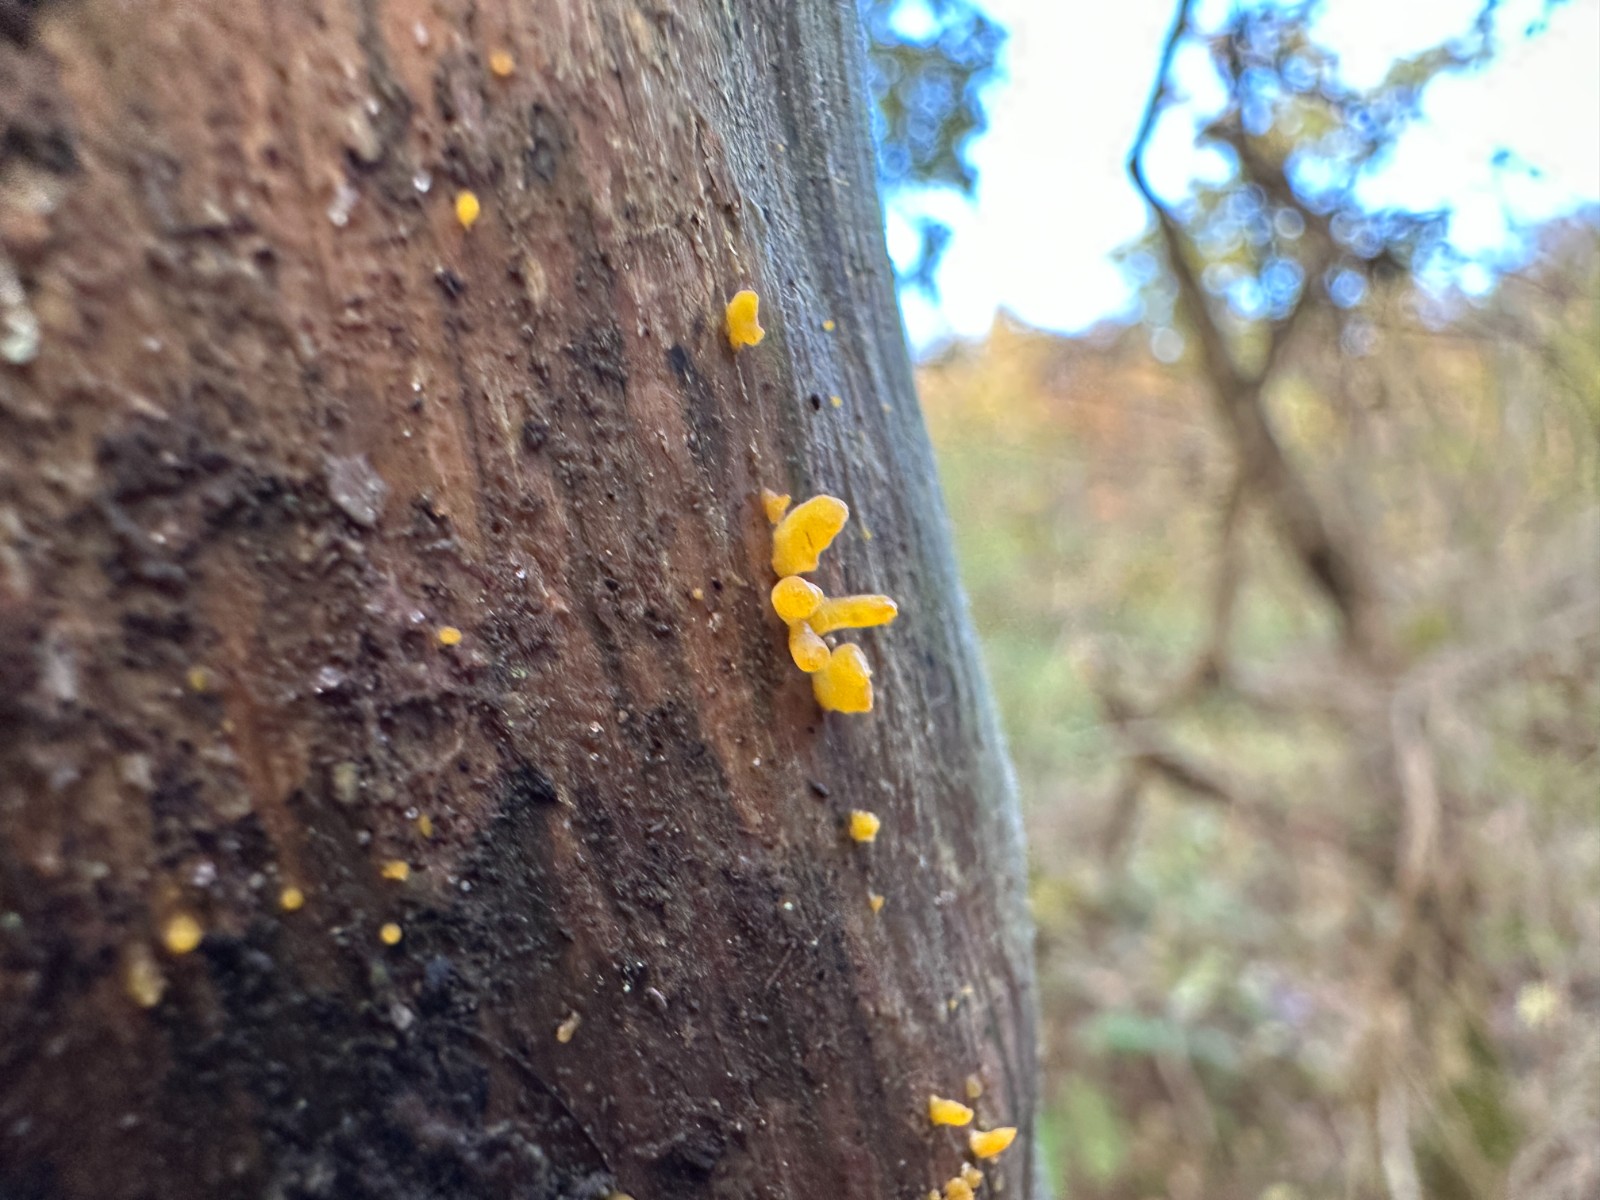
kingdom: Fungi
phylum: Basidiomycota
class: Dacrymycetes
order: Dacrymycetales
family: Dacrymycetaceae
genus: Calocera
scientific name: Calocera
